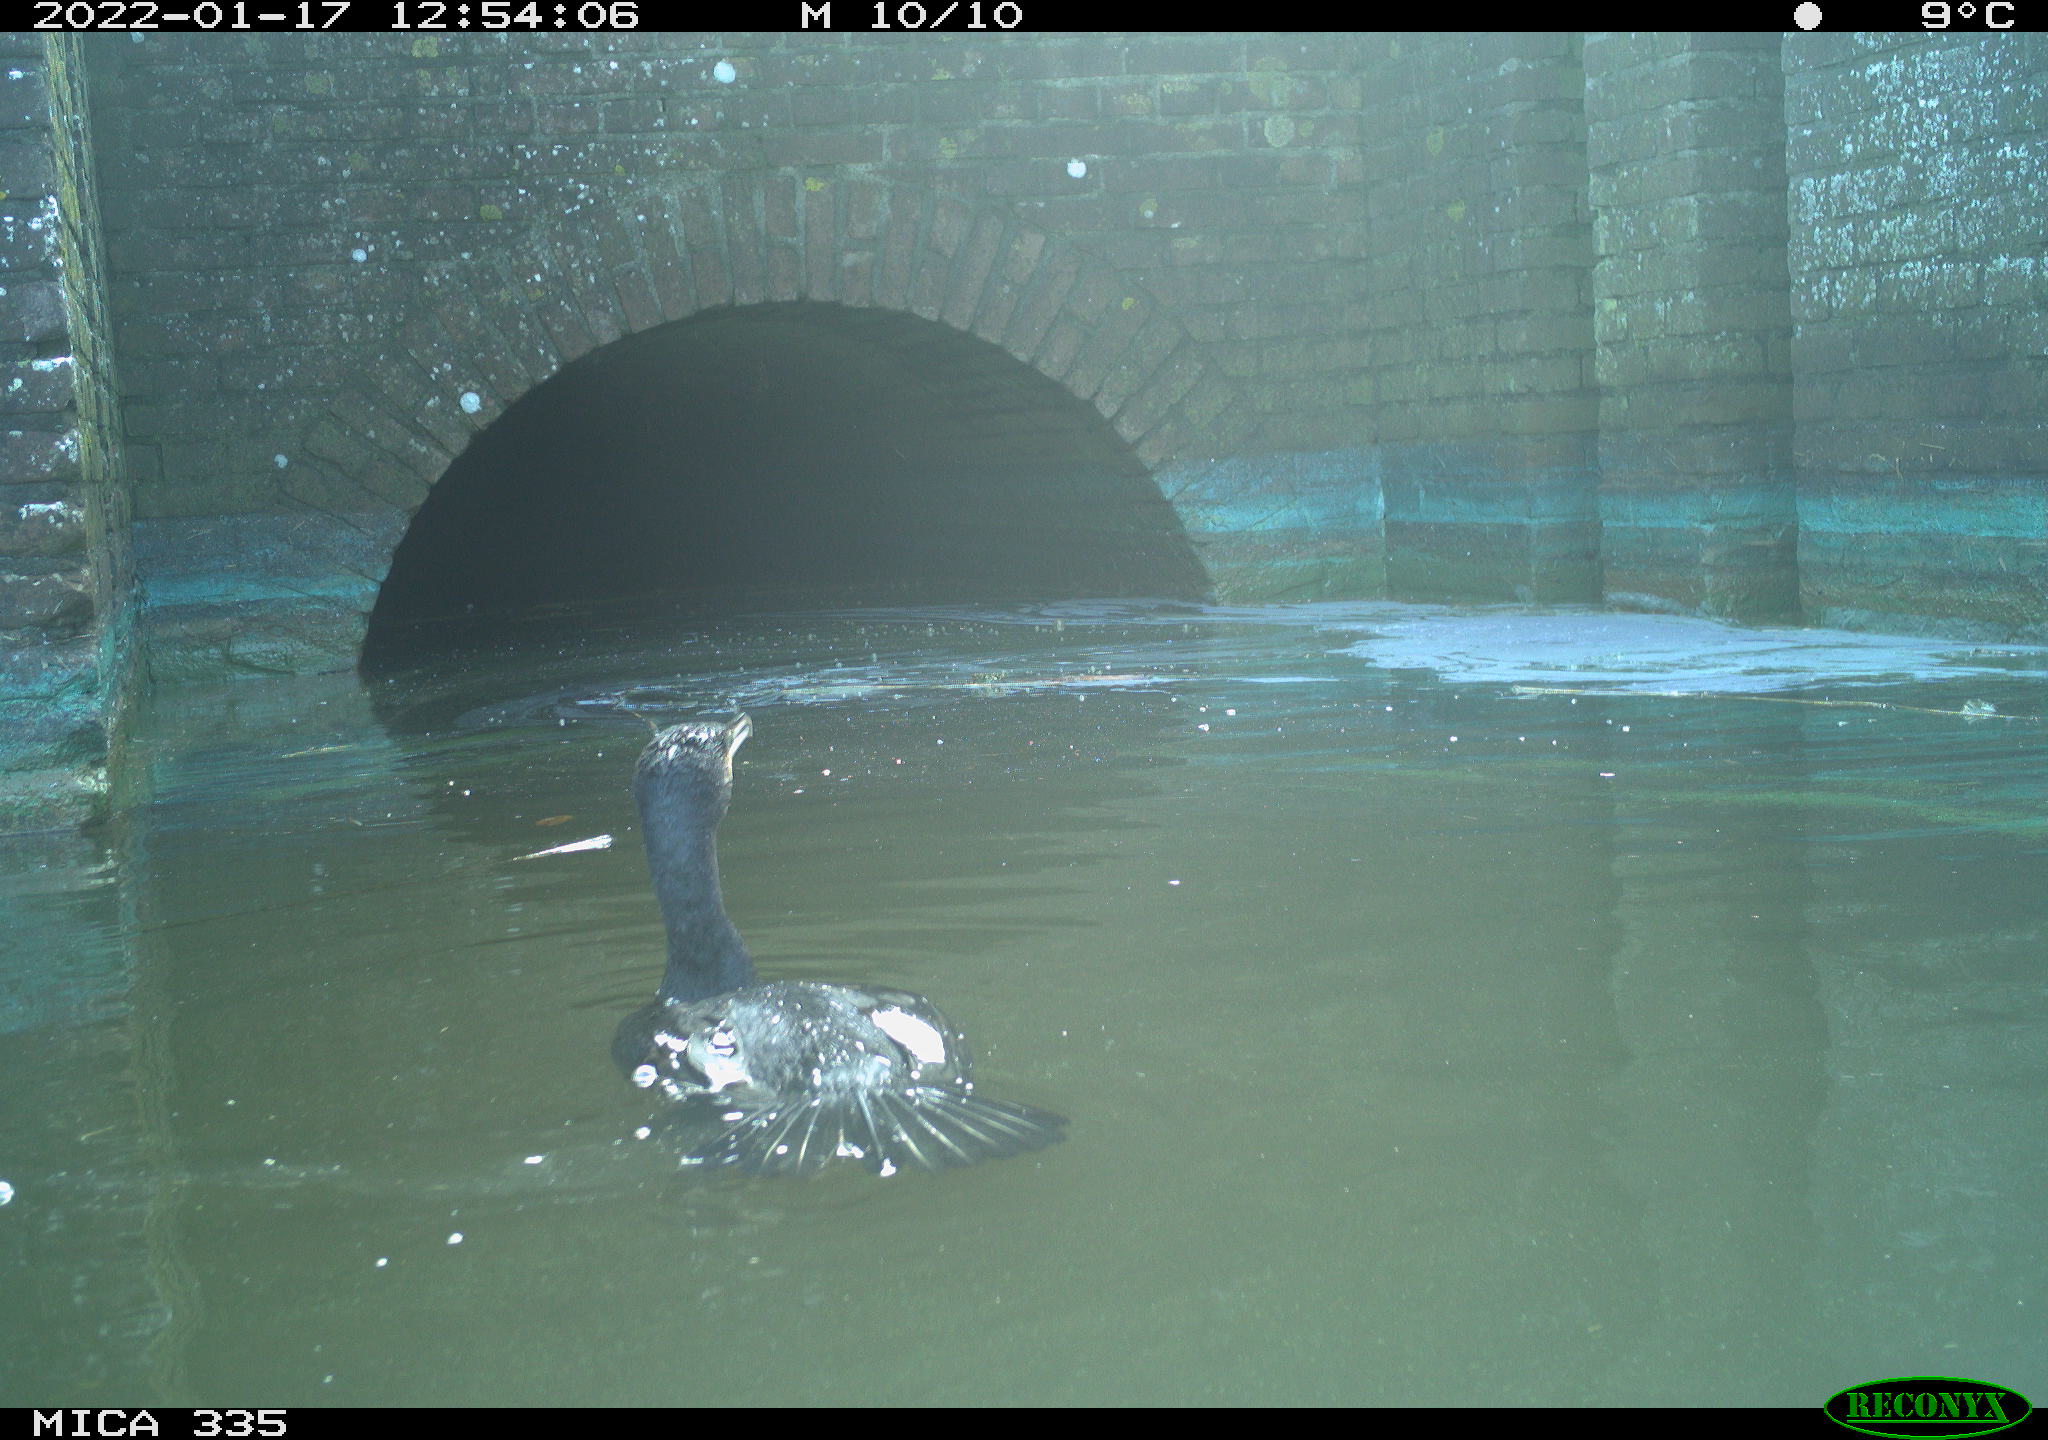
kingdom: Animalia
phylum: Chordata
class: Aves
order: Suliformes
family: Phalacrocoracidae
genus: Phalacrocorax
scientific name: Phalacrocorax carbo
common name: Great cormorant
